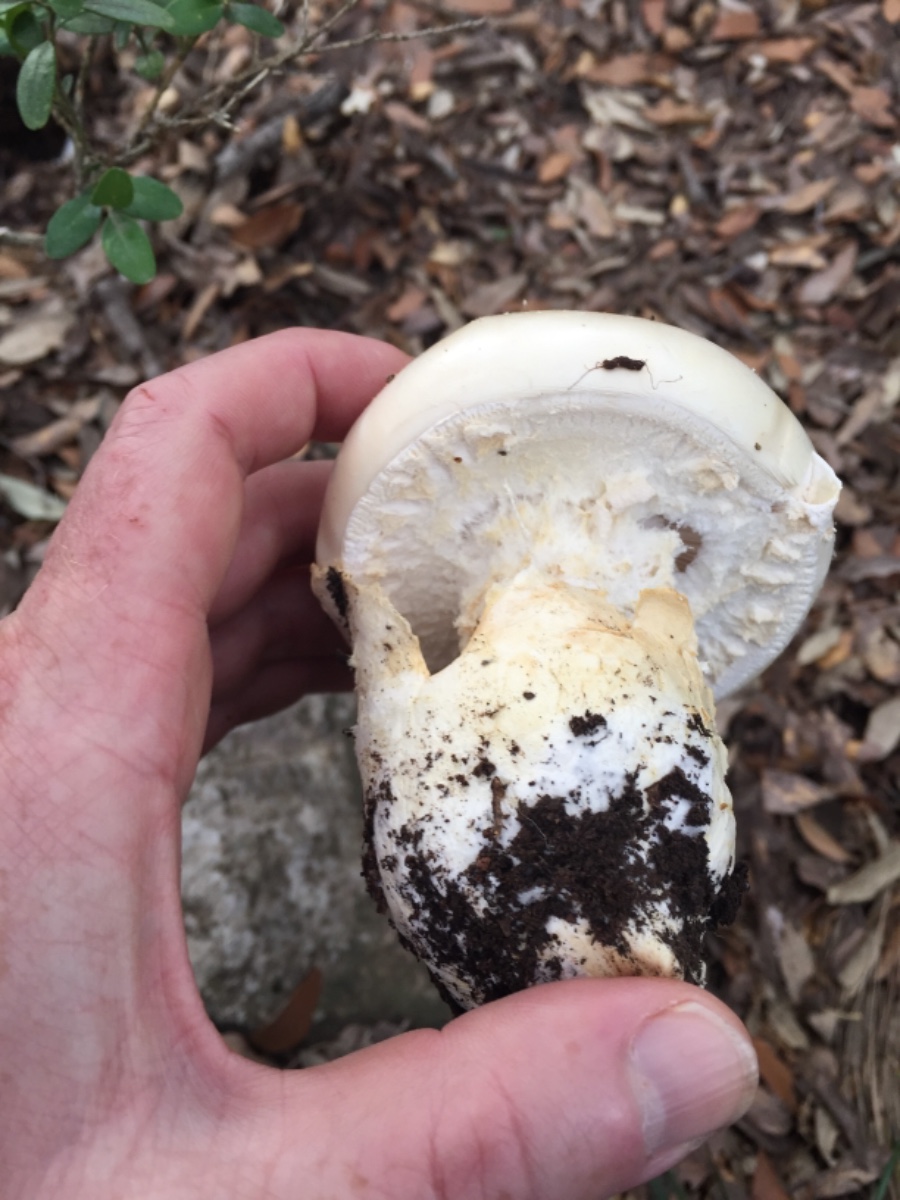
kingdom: Fungi
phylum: Basidiomycota
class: Agaricomycetes
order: Agaricales
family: Amanitaceae
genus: Amanita
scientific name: Amanita ovoidea
